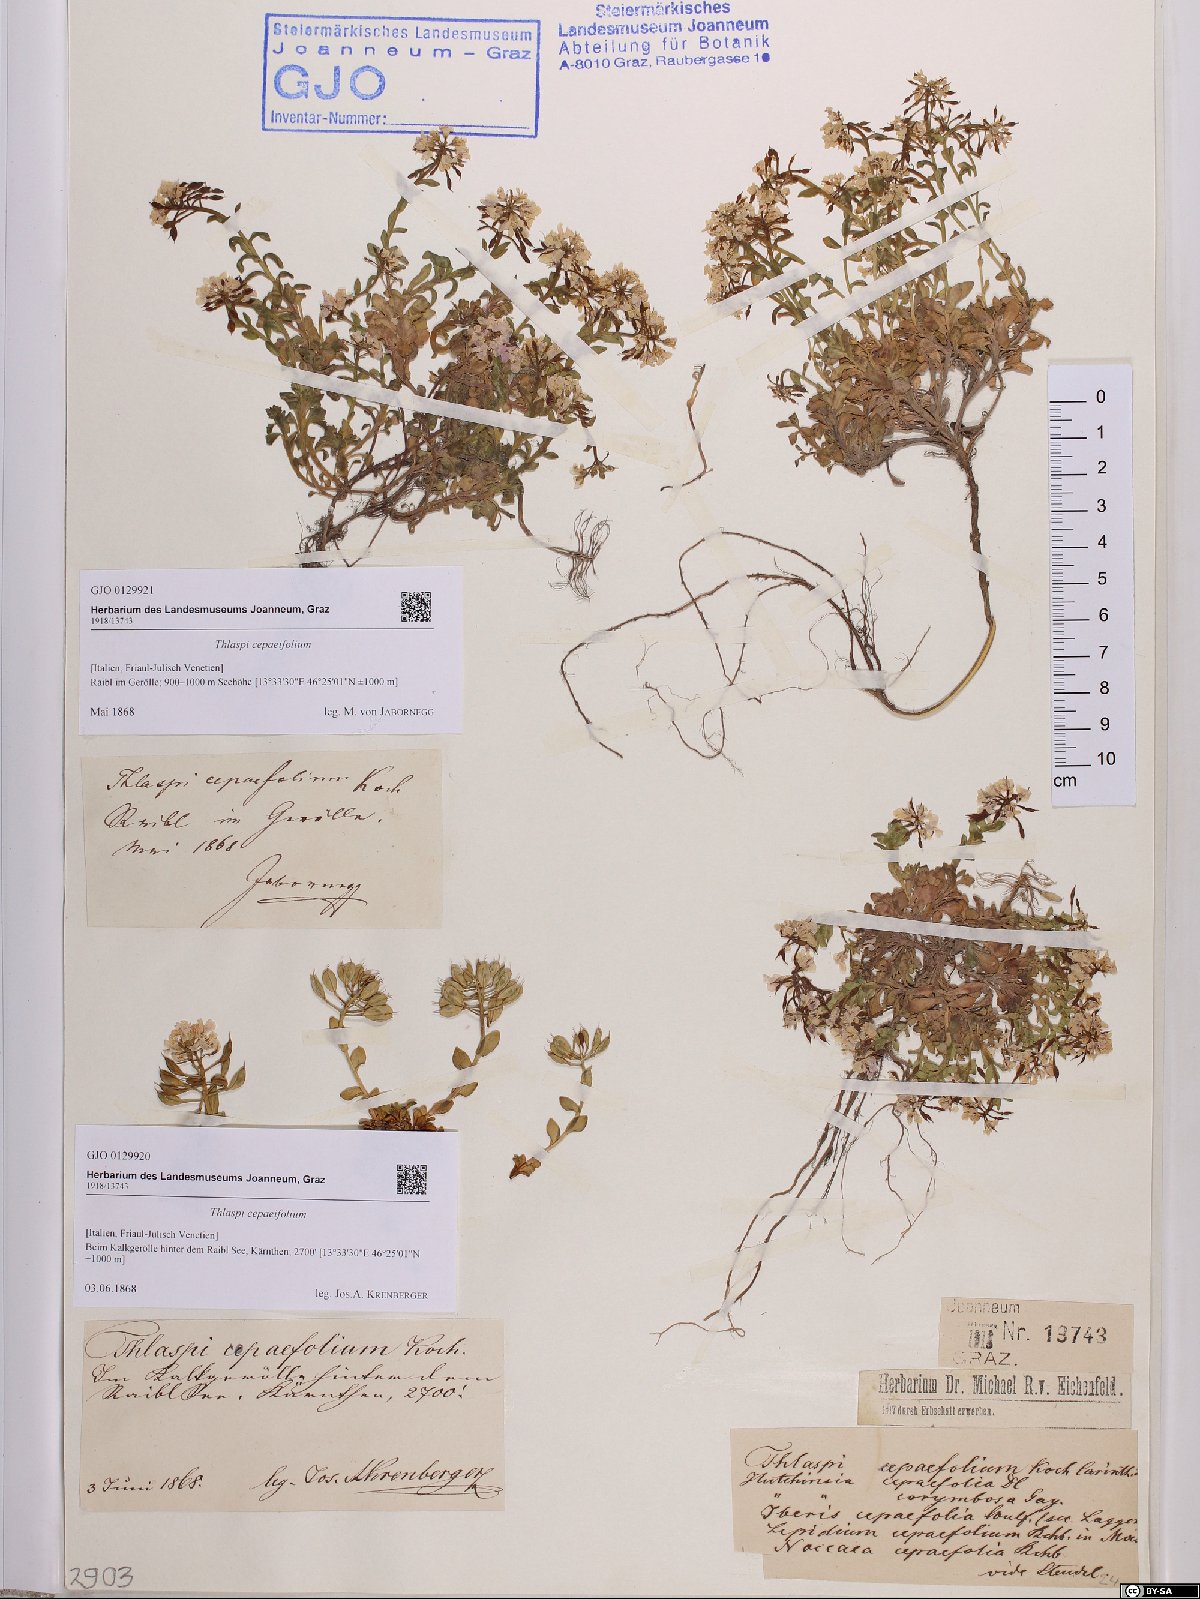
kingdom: Plantae
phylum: Tracheophyta
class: Magnoliopsida
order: Brassicales
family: Brassicaceae
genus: Noccaea
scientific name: Noccaea cepaeifolia
